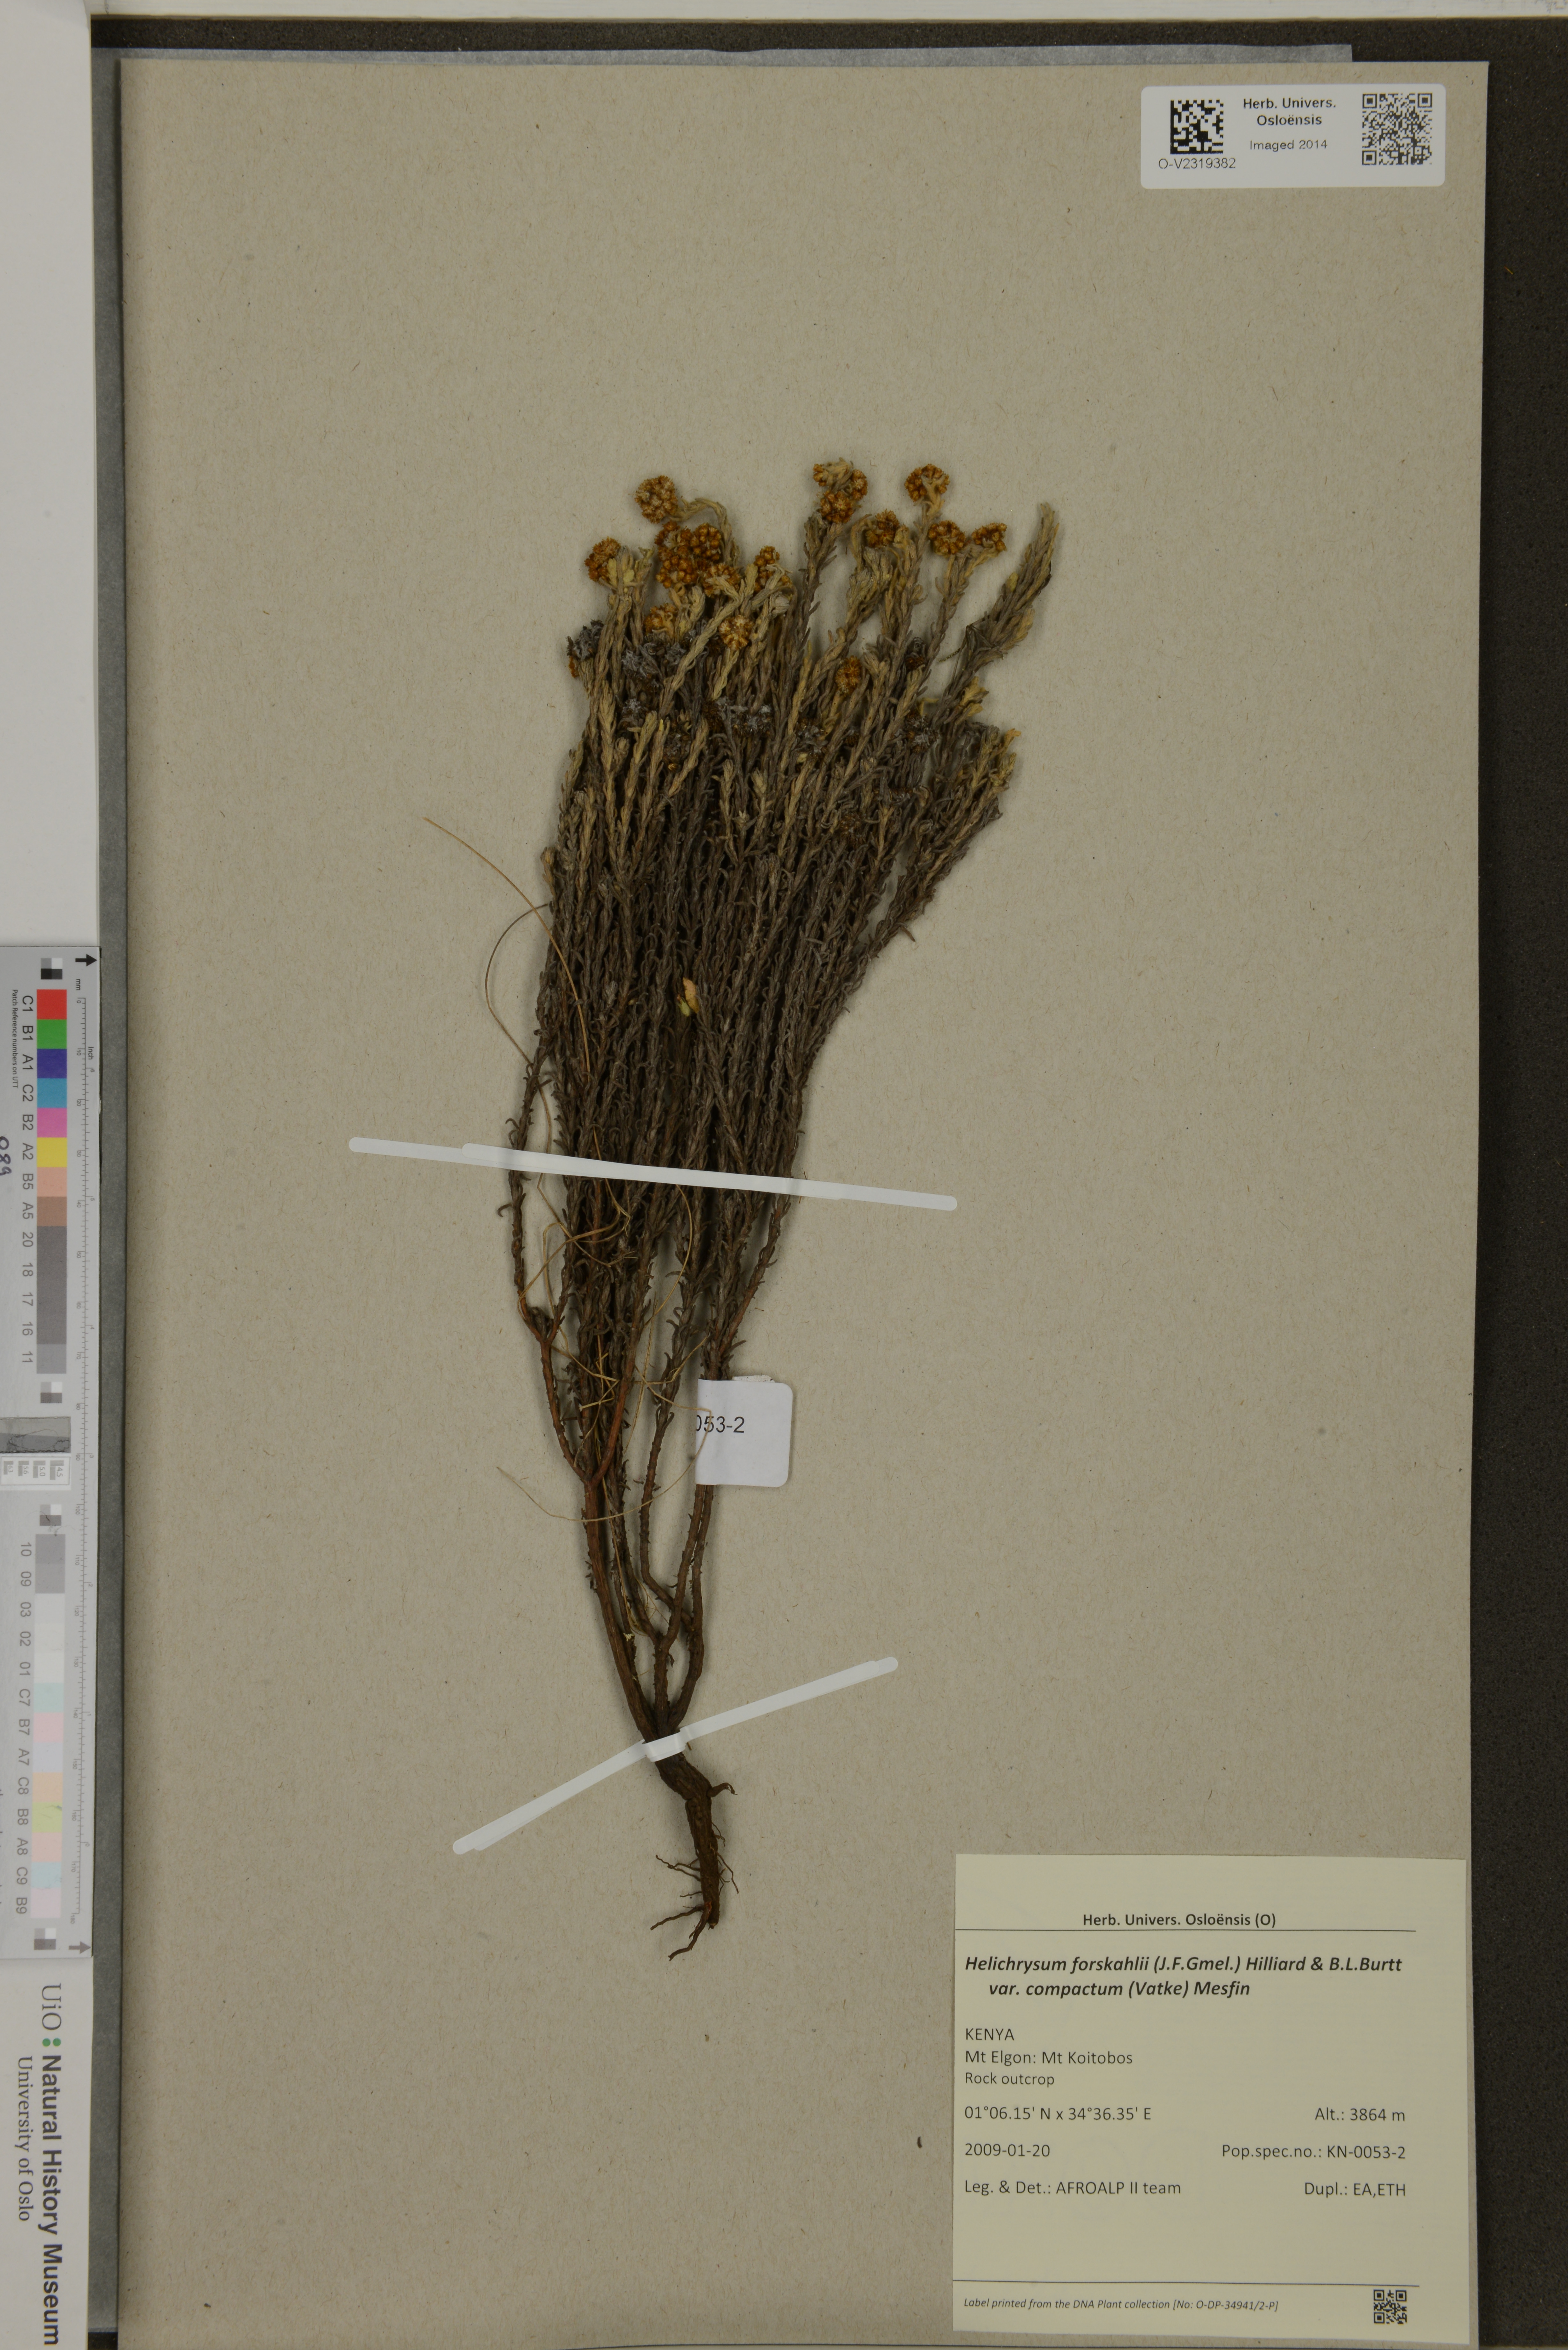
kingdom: Plantae
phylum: Tracheophyta
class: Magnoliopsida
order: Asterales
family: Asteraceae
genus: Helichrysum
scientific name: Helichrysum forskahlii
